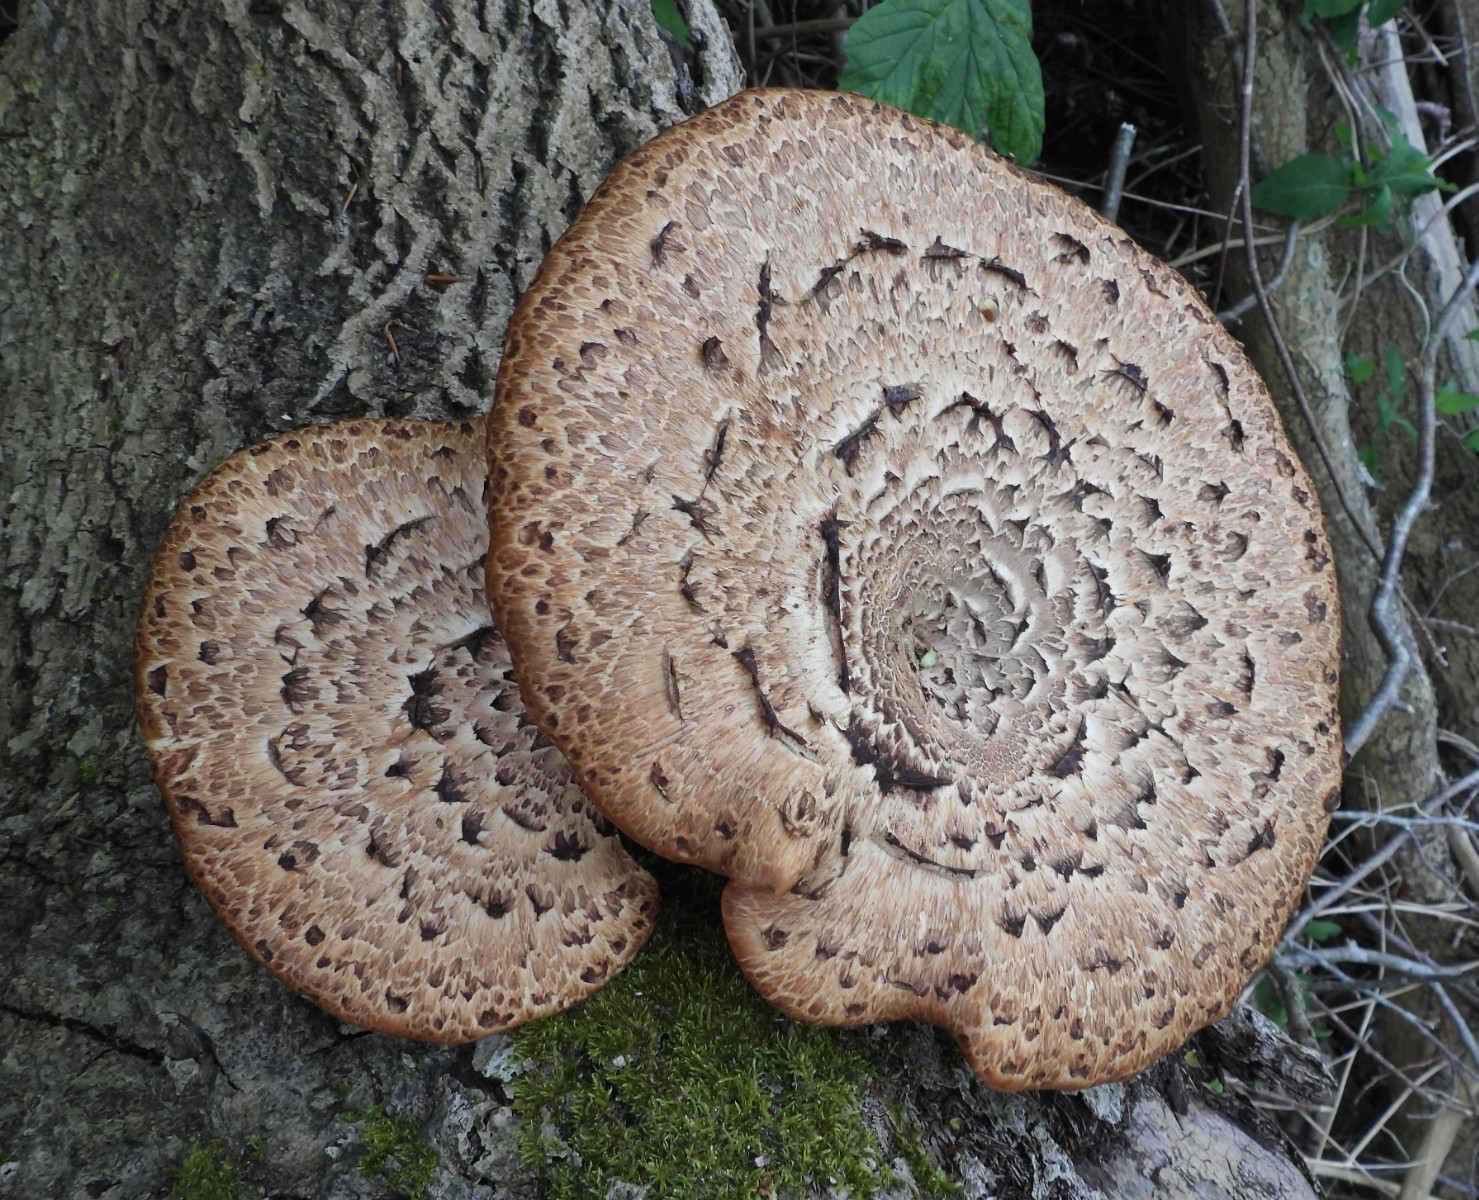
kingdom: Fungi
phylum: Basidiomycota
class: Agaricomycetes
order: Polyporales
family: Polyporaceae
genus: Cerioporus
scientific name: Cerioporus squamosus
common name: skællet stilkporesvamp
